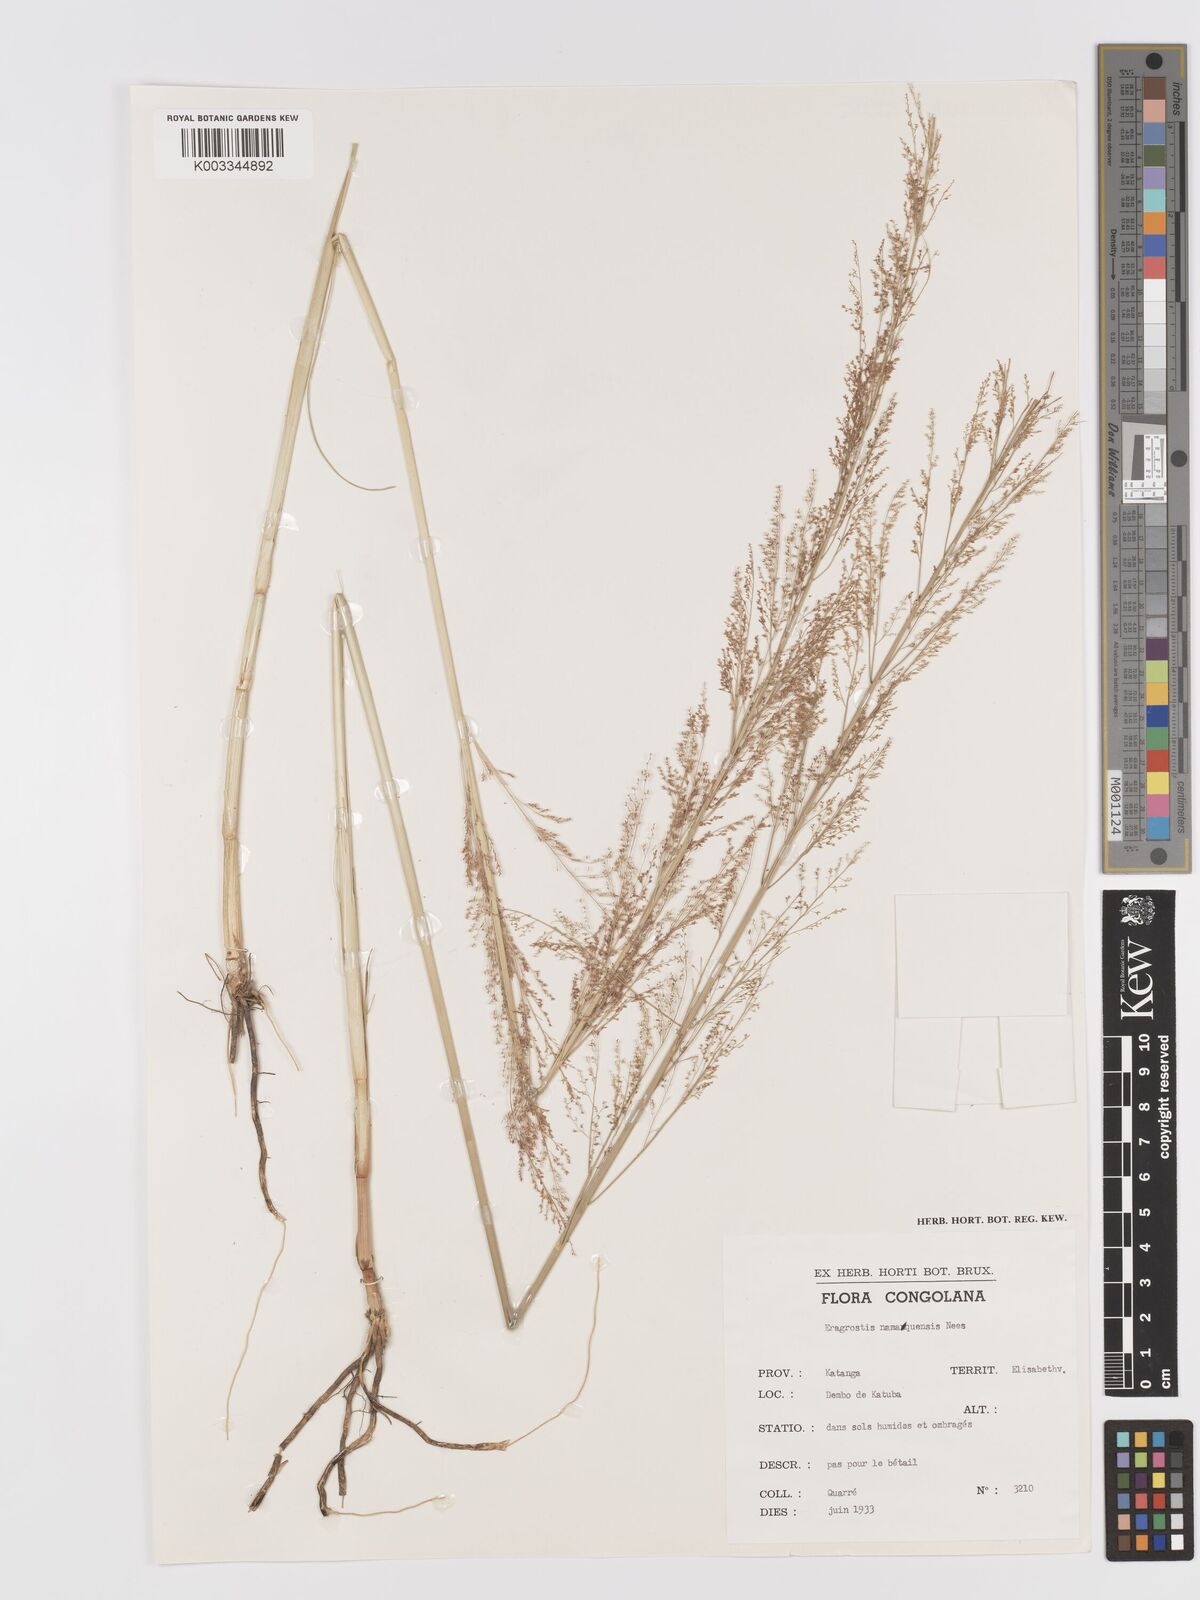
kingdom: Plantae
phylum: Tracheophyta
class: Liliopsida
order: Poales
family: Poaceae
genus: Eragrostis
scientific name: Eragrostis japonica
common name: Pond lovegrass
